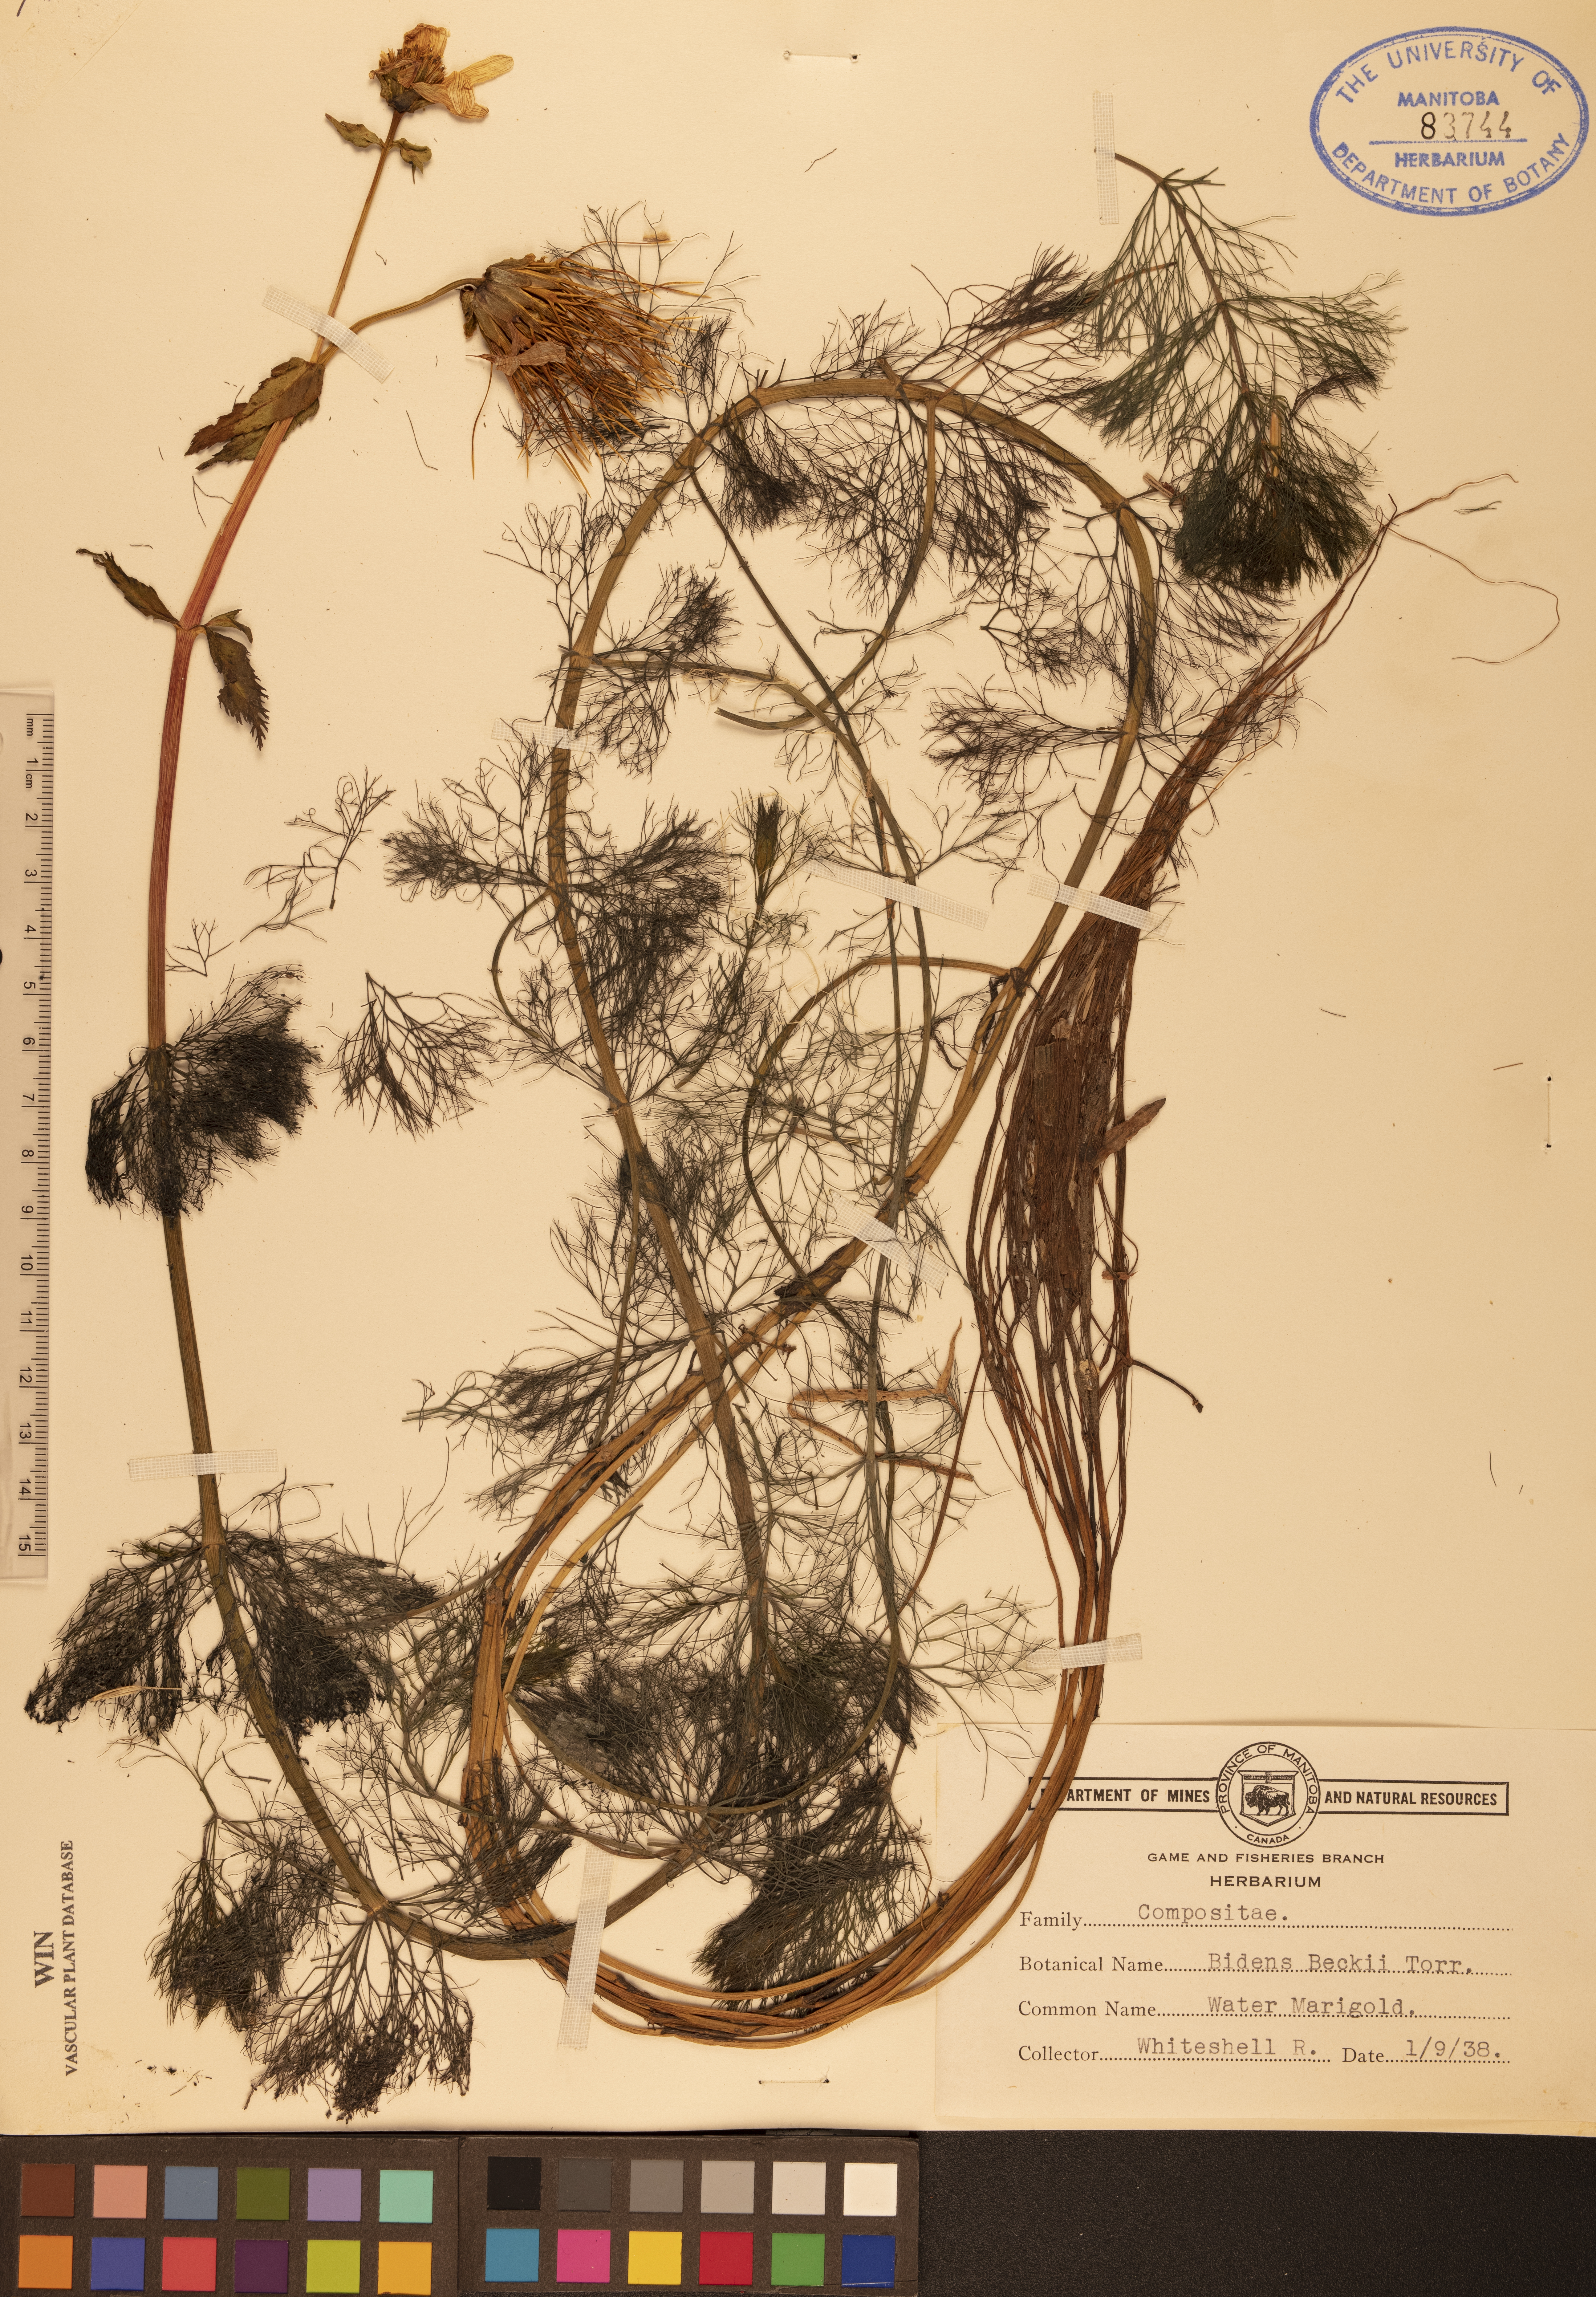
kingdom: Plantae
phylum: Tracheophyta
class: Magnoliopsida
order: Asterales
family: Asteraceae
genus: Bidens
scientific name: Bidens beckii
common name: Beck's beggarticks
